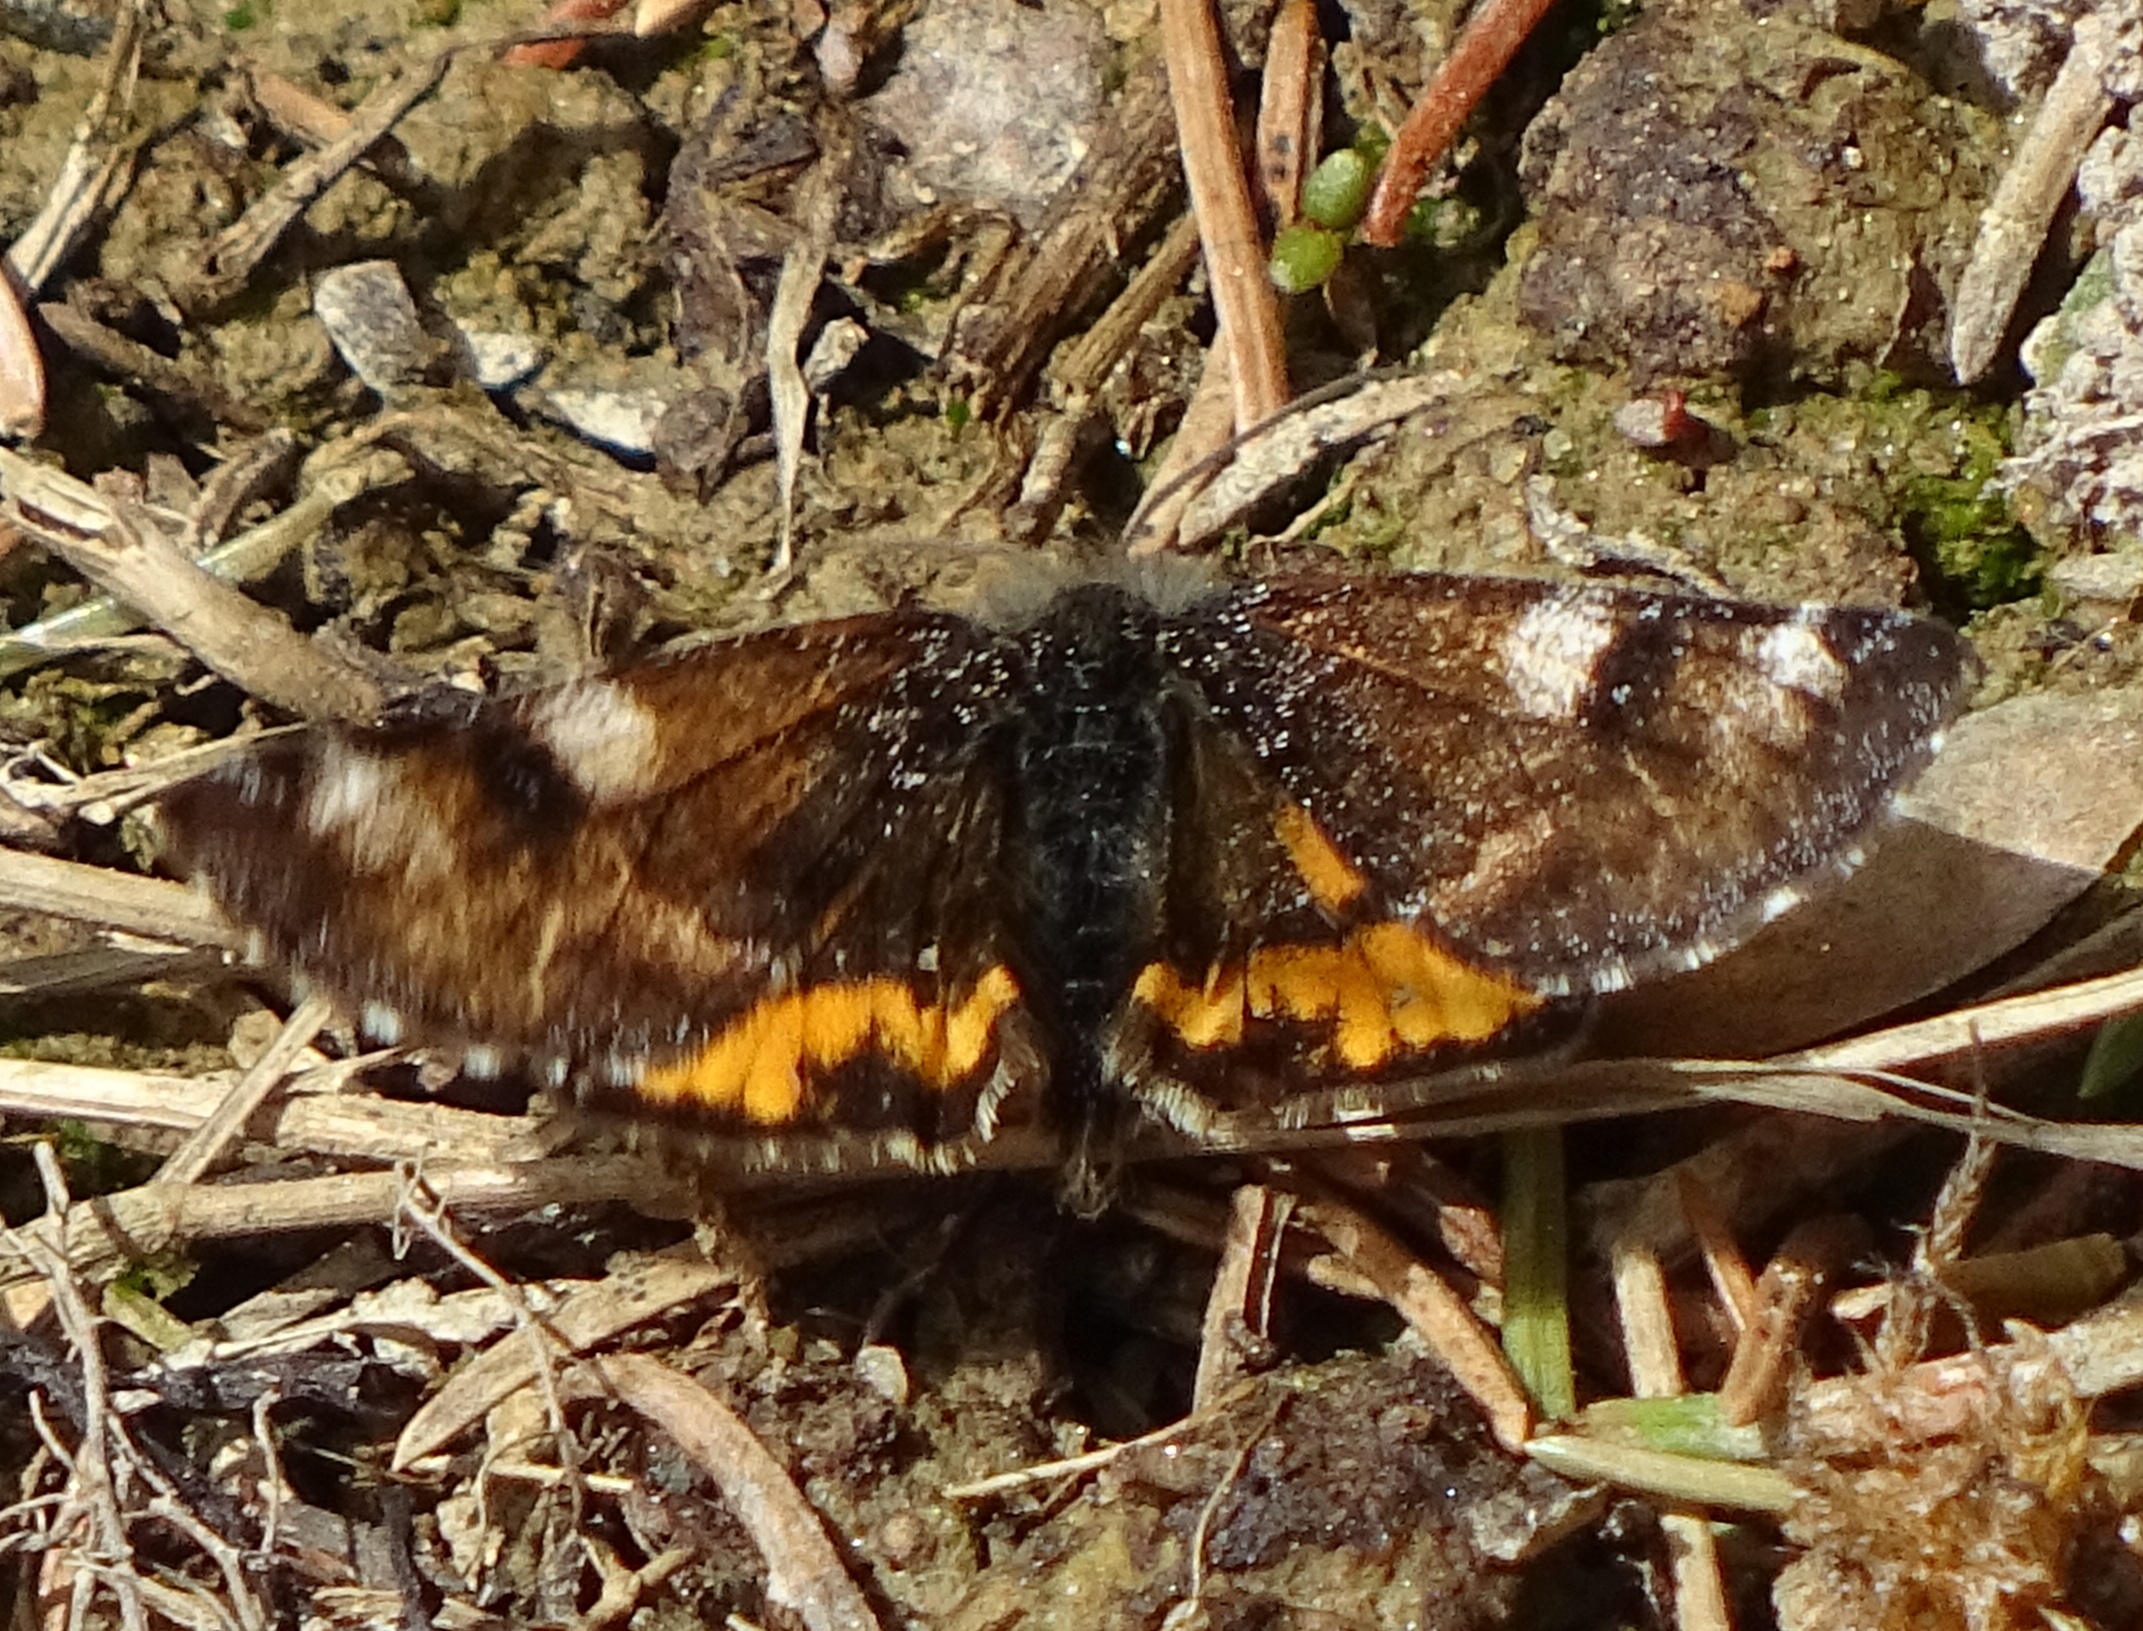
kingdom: Animalia
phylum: Arthropoda
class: Insecta
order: Lepidoptera
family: Geometridae
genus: Archiearis
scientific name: Archiearis parthenias
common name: Orange underwing
